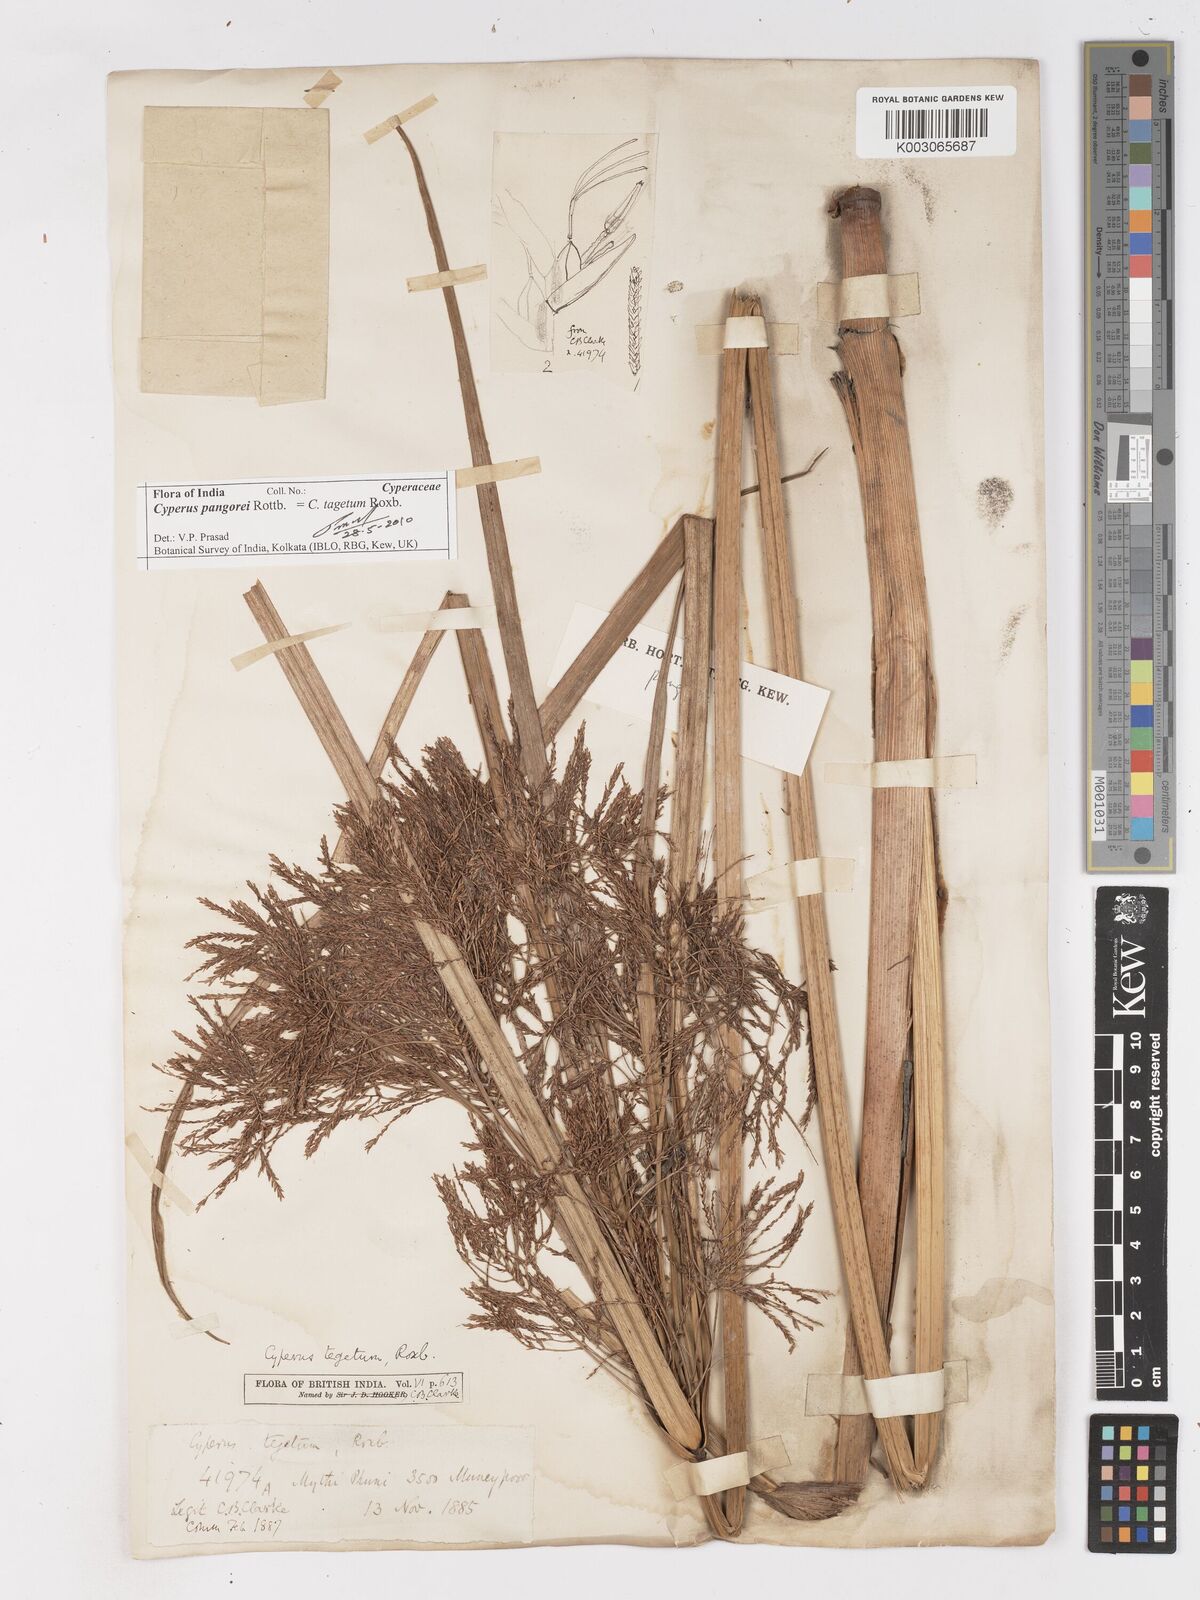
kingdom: Plantae
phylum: Tracheophyta
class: Liliopsida
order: Poales
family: Cyperaceae
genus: Cyperus
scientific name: Cyperus pangorei
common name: Mat sedge
